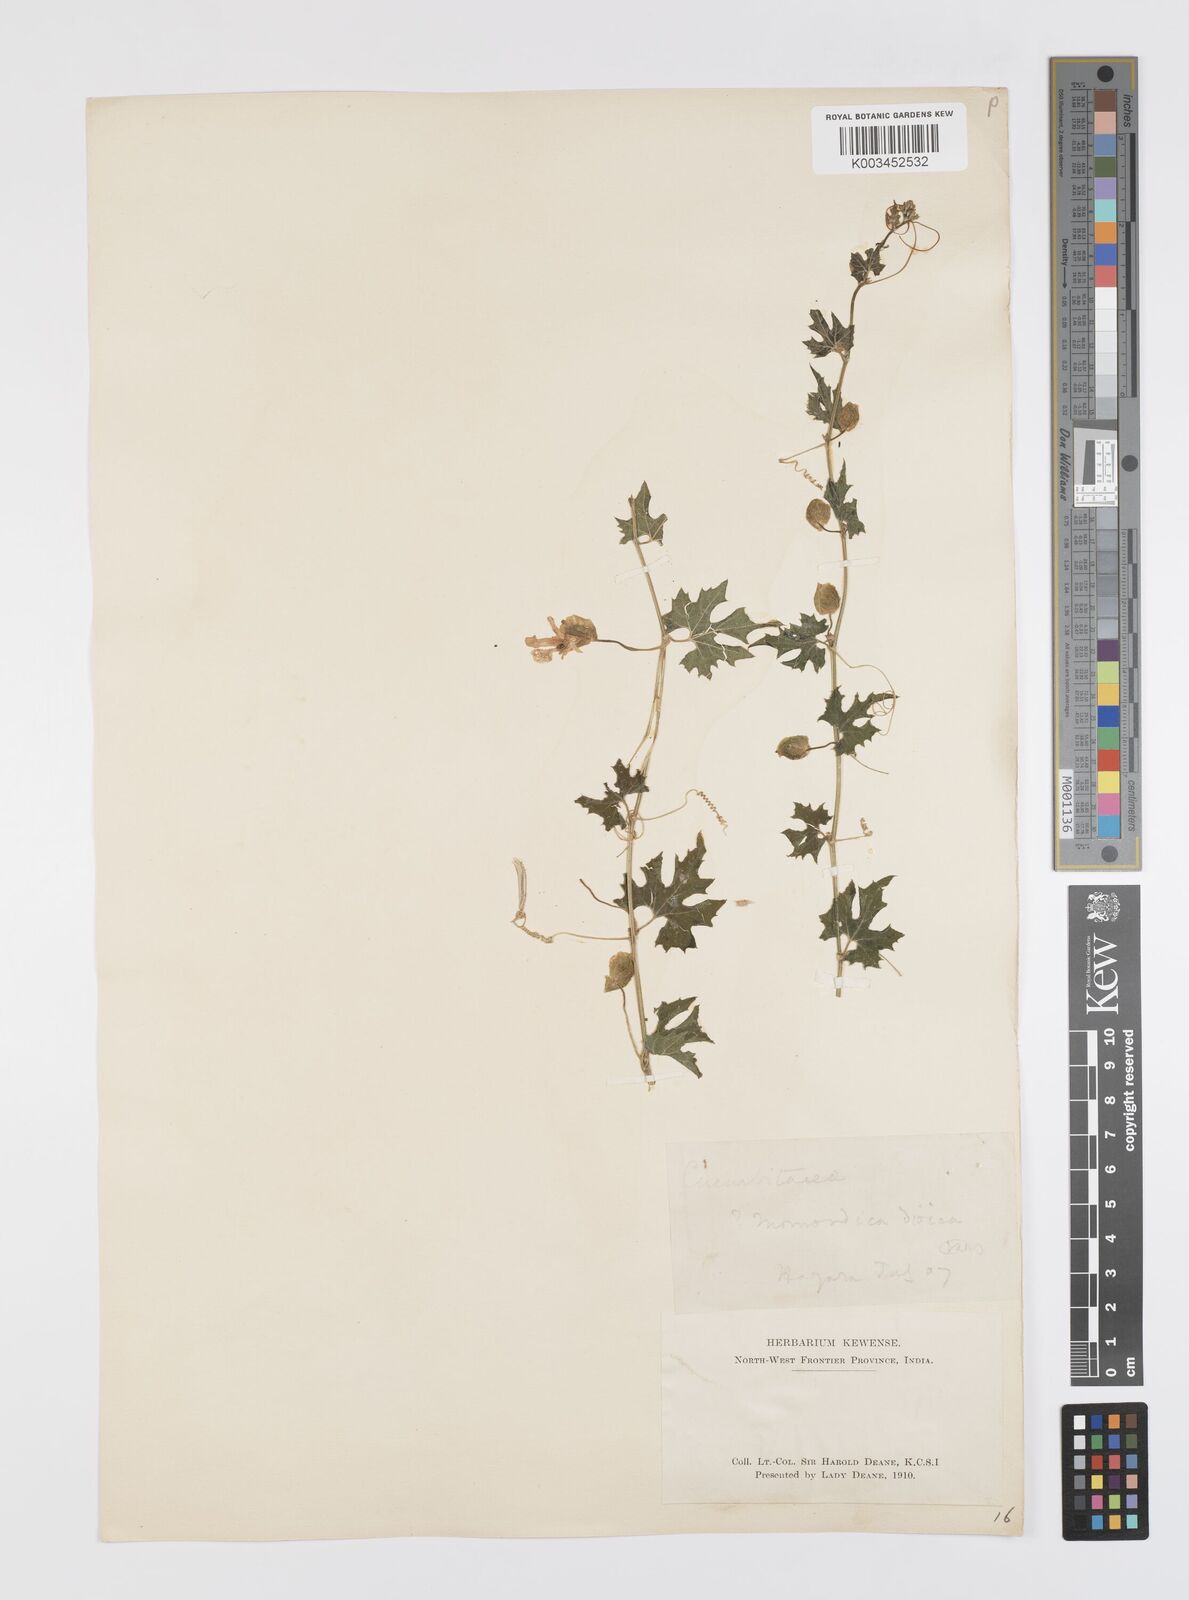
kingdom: Plantae
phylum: Tracheophyta
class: Magnoliopsida
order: Cucurbitales
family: Cucurbitaceae
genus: Momordica
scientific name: Momordica dioica
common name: Spine gourd
